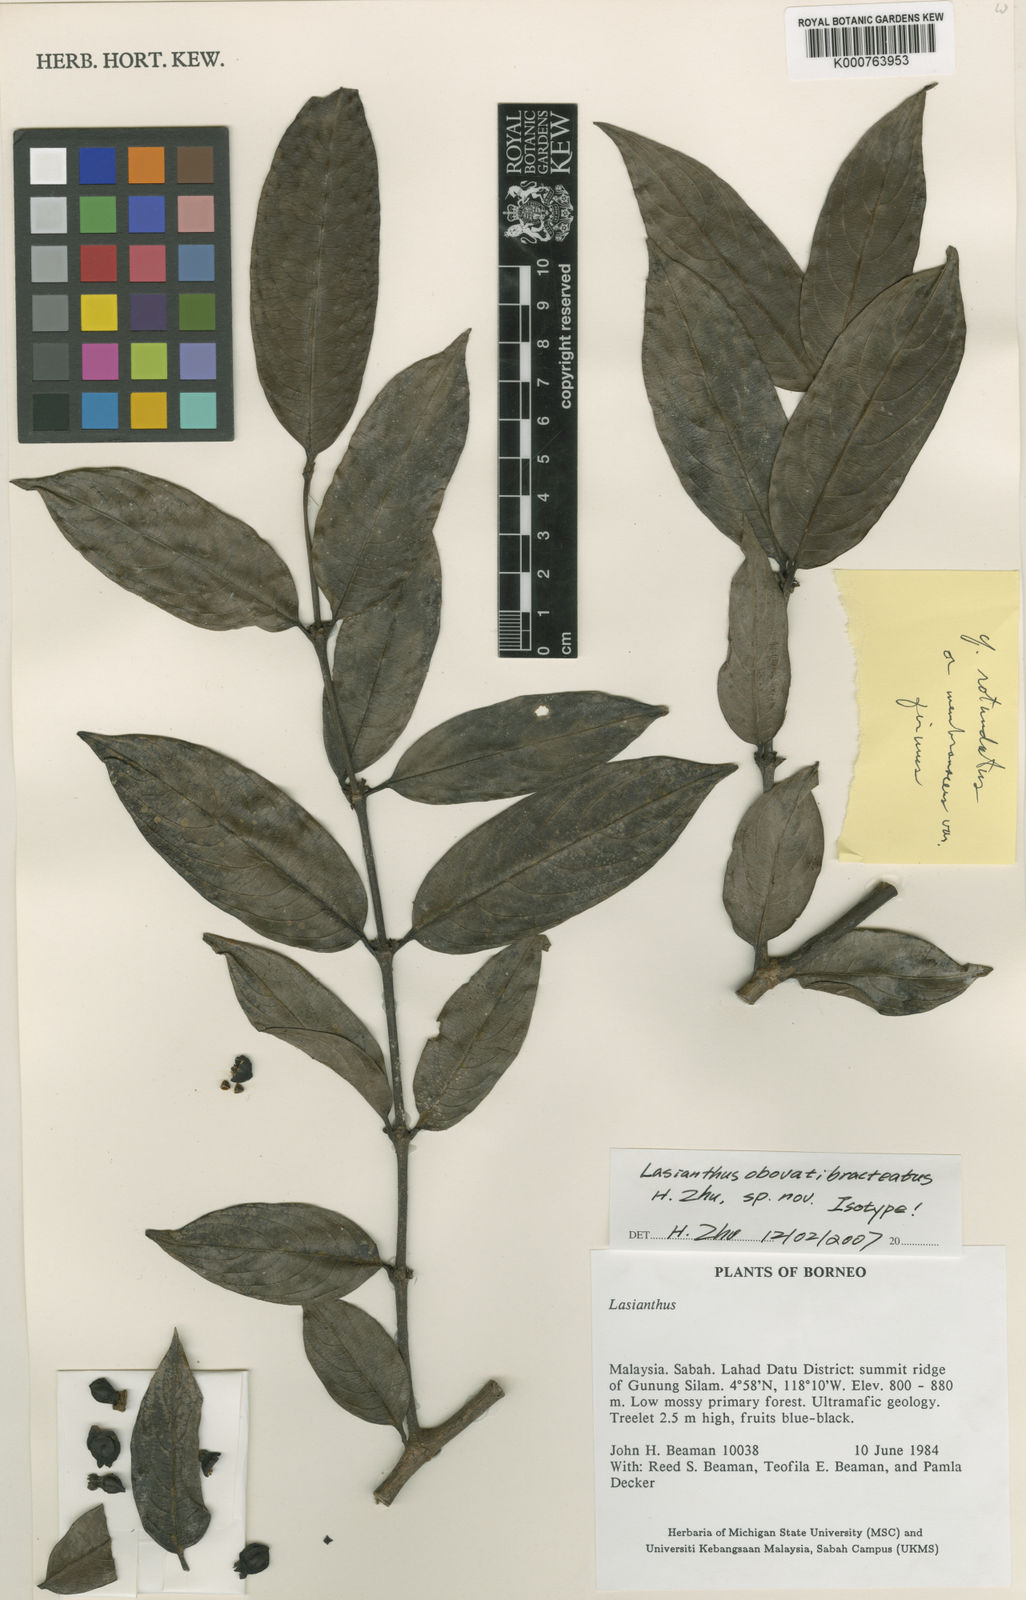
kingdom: Plantae
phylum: Tracheophyta
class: Magnoliopsida
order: Gentianales
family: Rubiaceae
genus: Lasianthus
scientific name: Lasianthus obovatibracteatus
